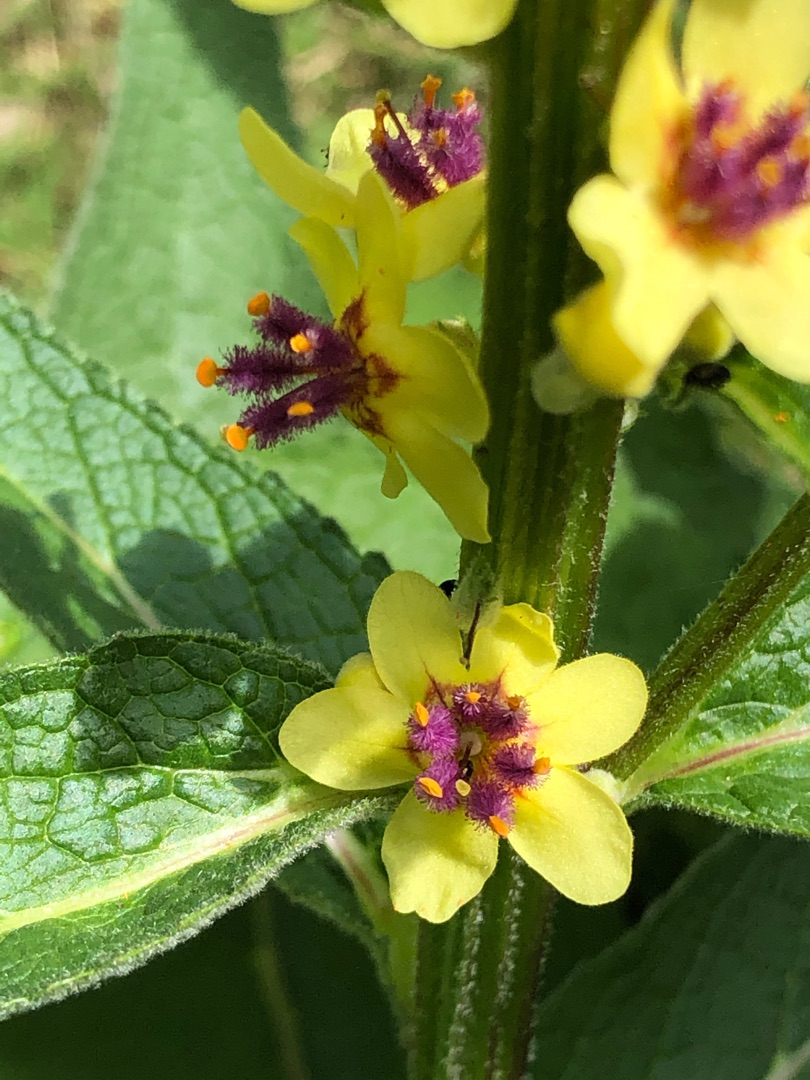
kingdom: Plantae
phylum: Tracheophyta
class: Magnoliopsida
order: Lamiales
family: Scrophulariaceae
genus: Verbascum
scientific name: Verbascum nigrum
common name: Mørk kongelys
